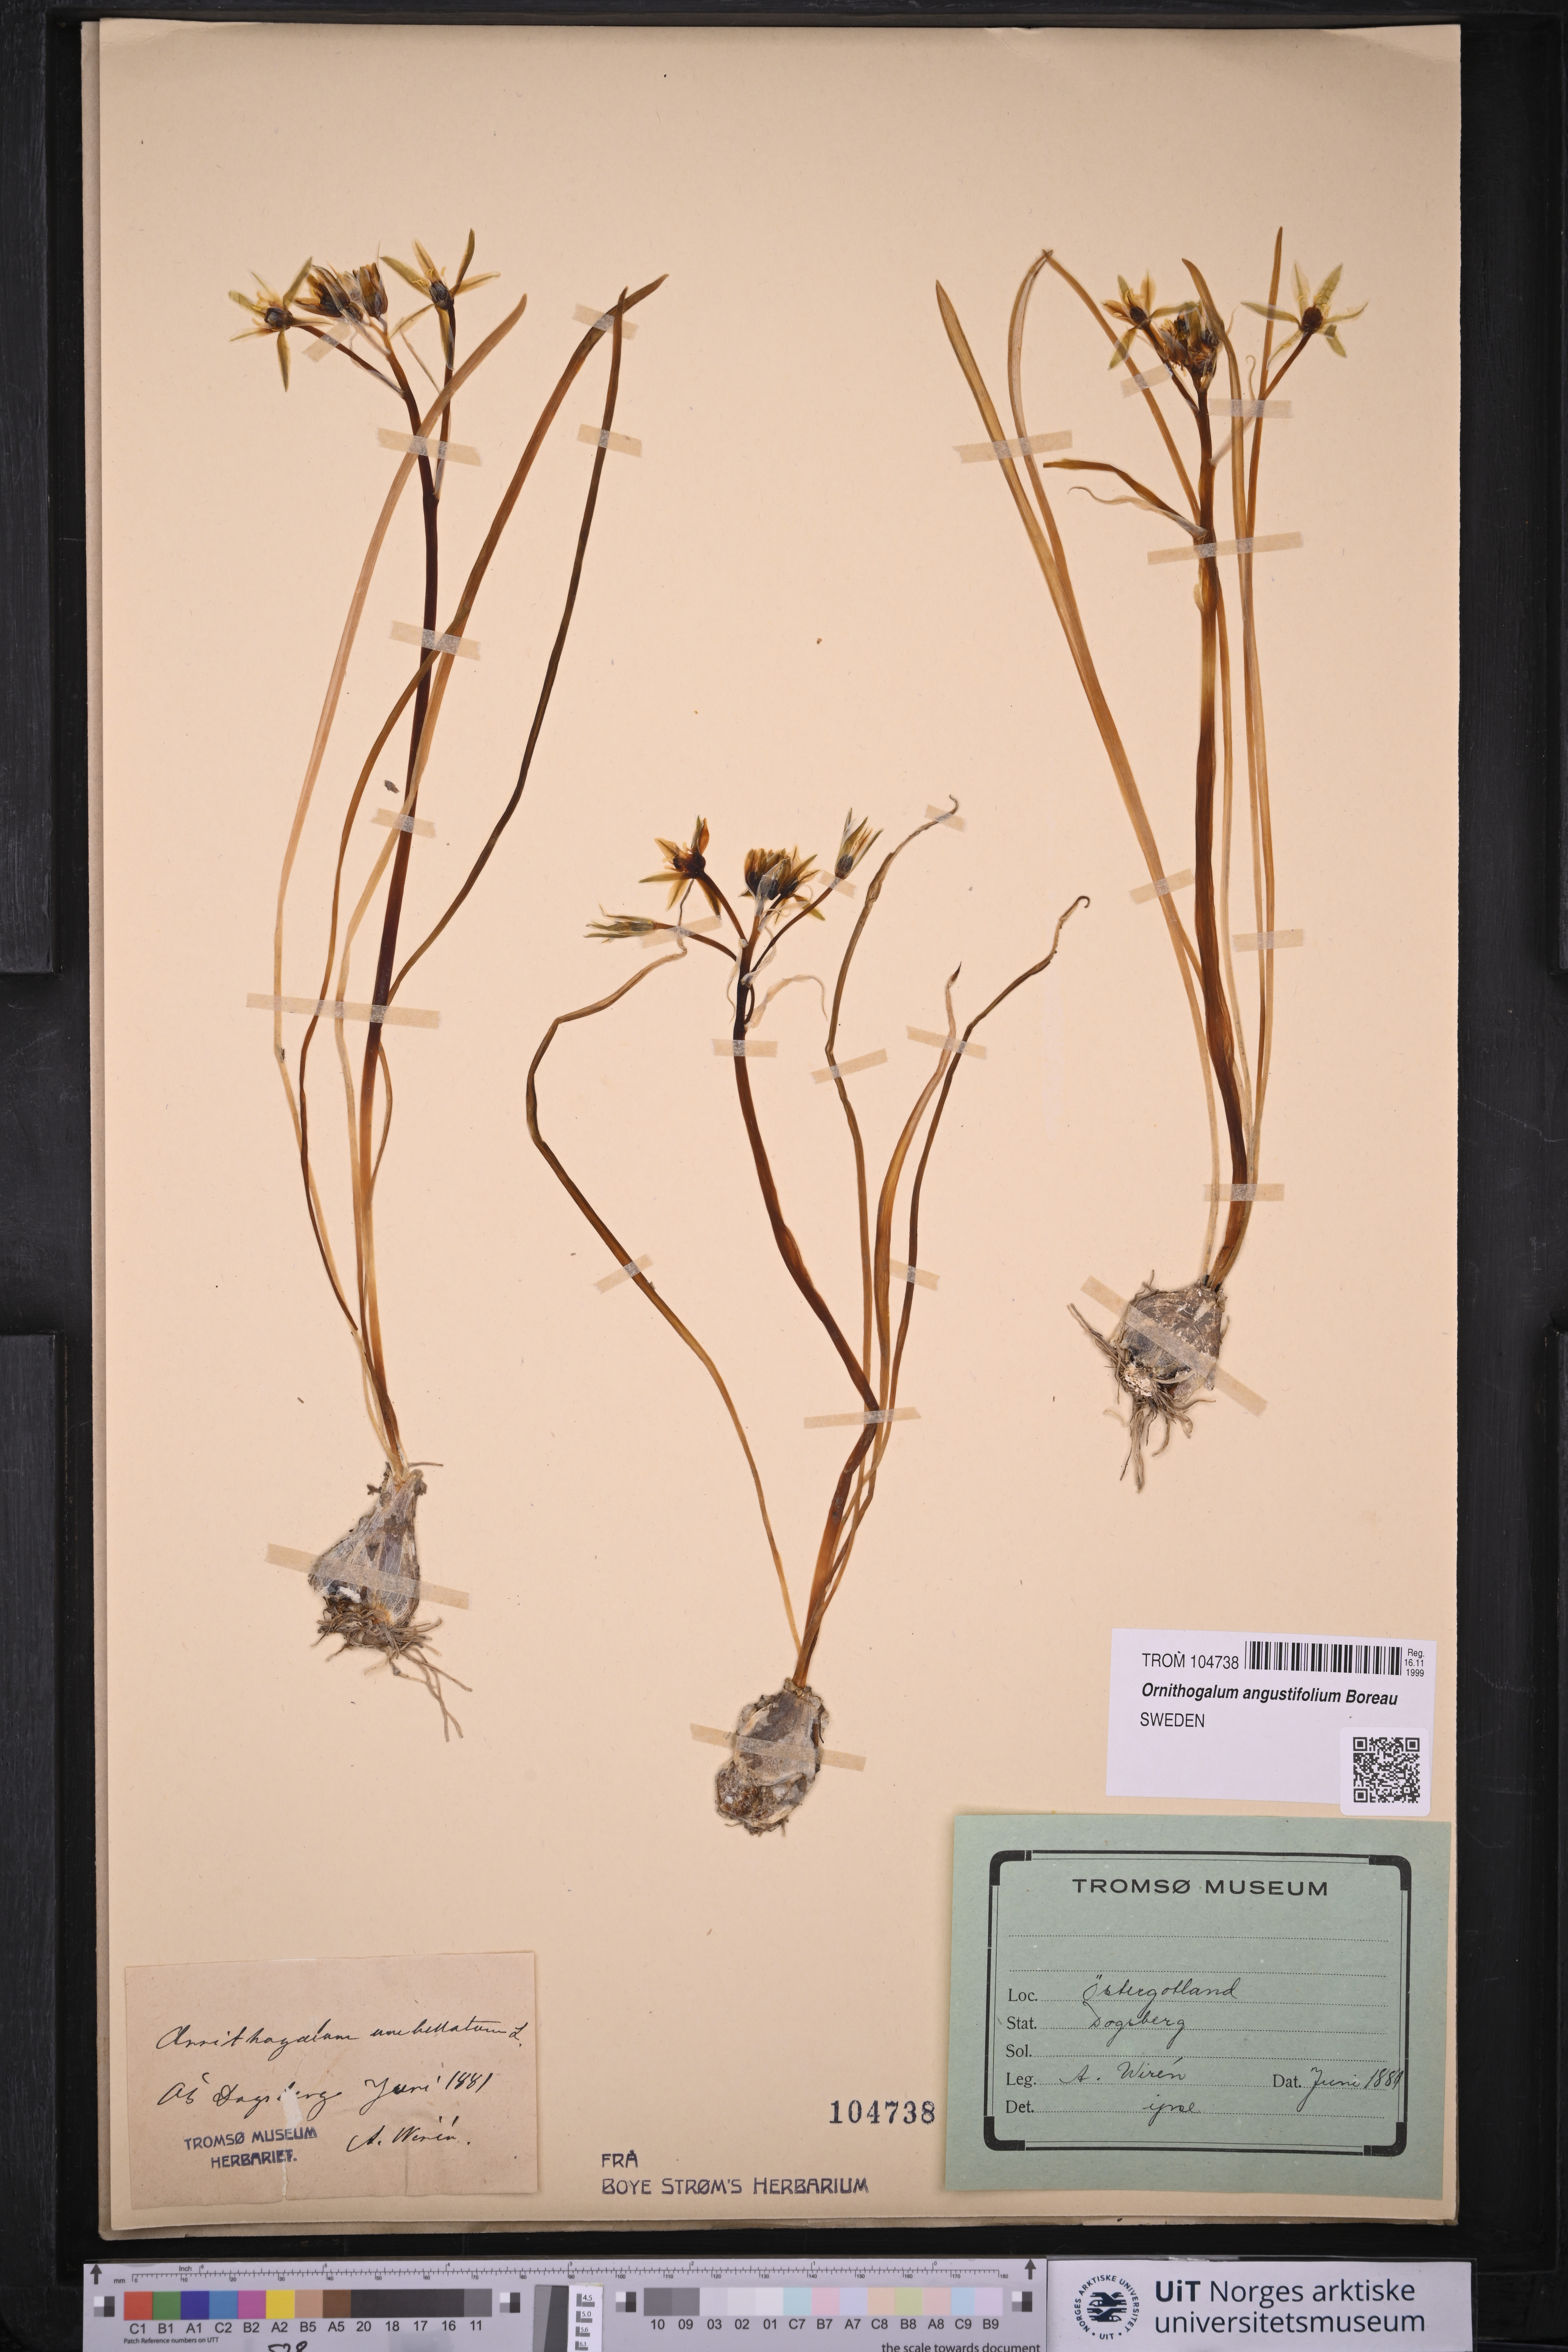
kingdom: Plantae
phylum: Tracheophyta
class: Liliopsida
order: Asparagales
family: Asparagaceae
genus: Ornithogalum
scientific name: Ornithogalum umbellatum
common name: Garden star-of-bethlehem
